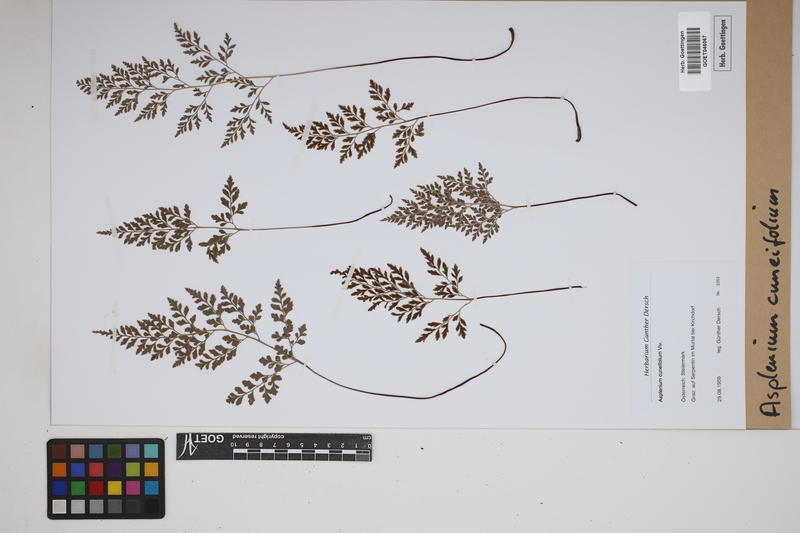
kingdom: Plantae
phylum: Tracheophyta
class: Polypodiopsida
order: Polypodiales
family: Aspleniaceae
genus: Asplenium
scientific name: Asplenium cuneifolium
